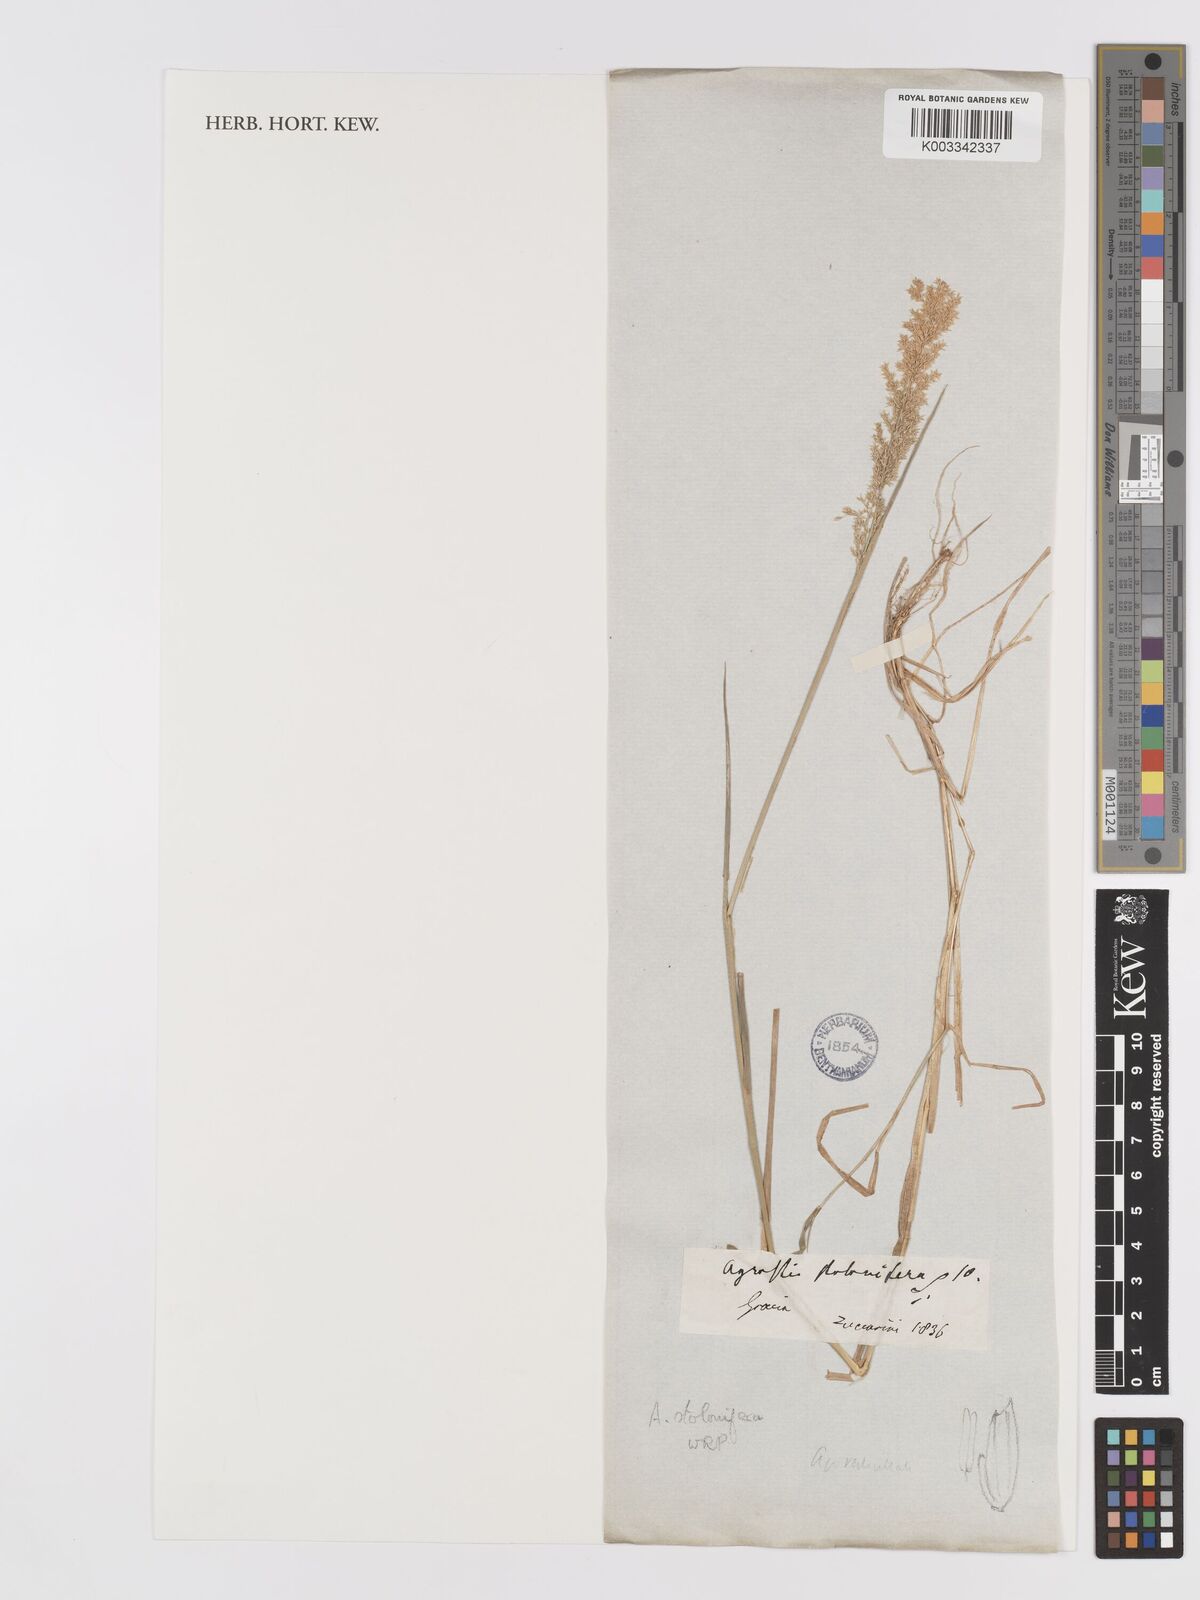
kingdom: Plantae
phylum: Tracheophyta
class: Liliopsida
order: Poales
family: Poaceae
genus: Agrostis
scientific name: Agrostis stolonifera
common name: Creeping bentgrass
